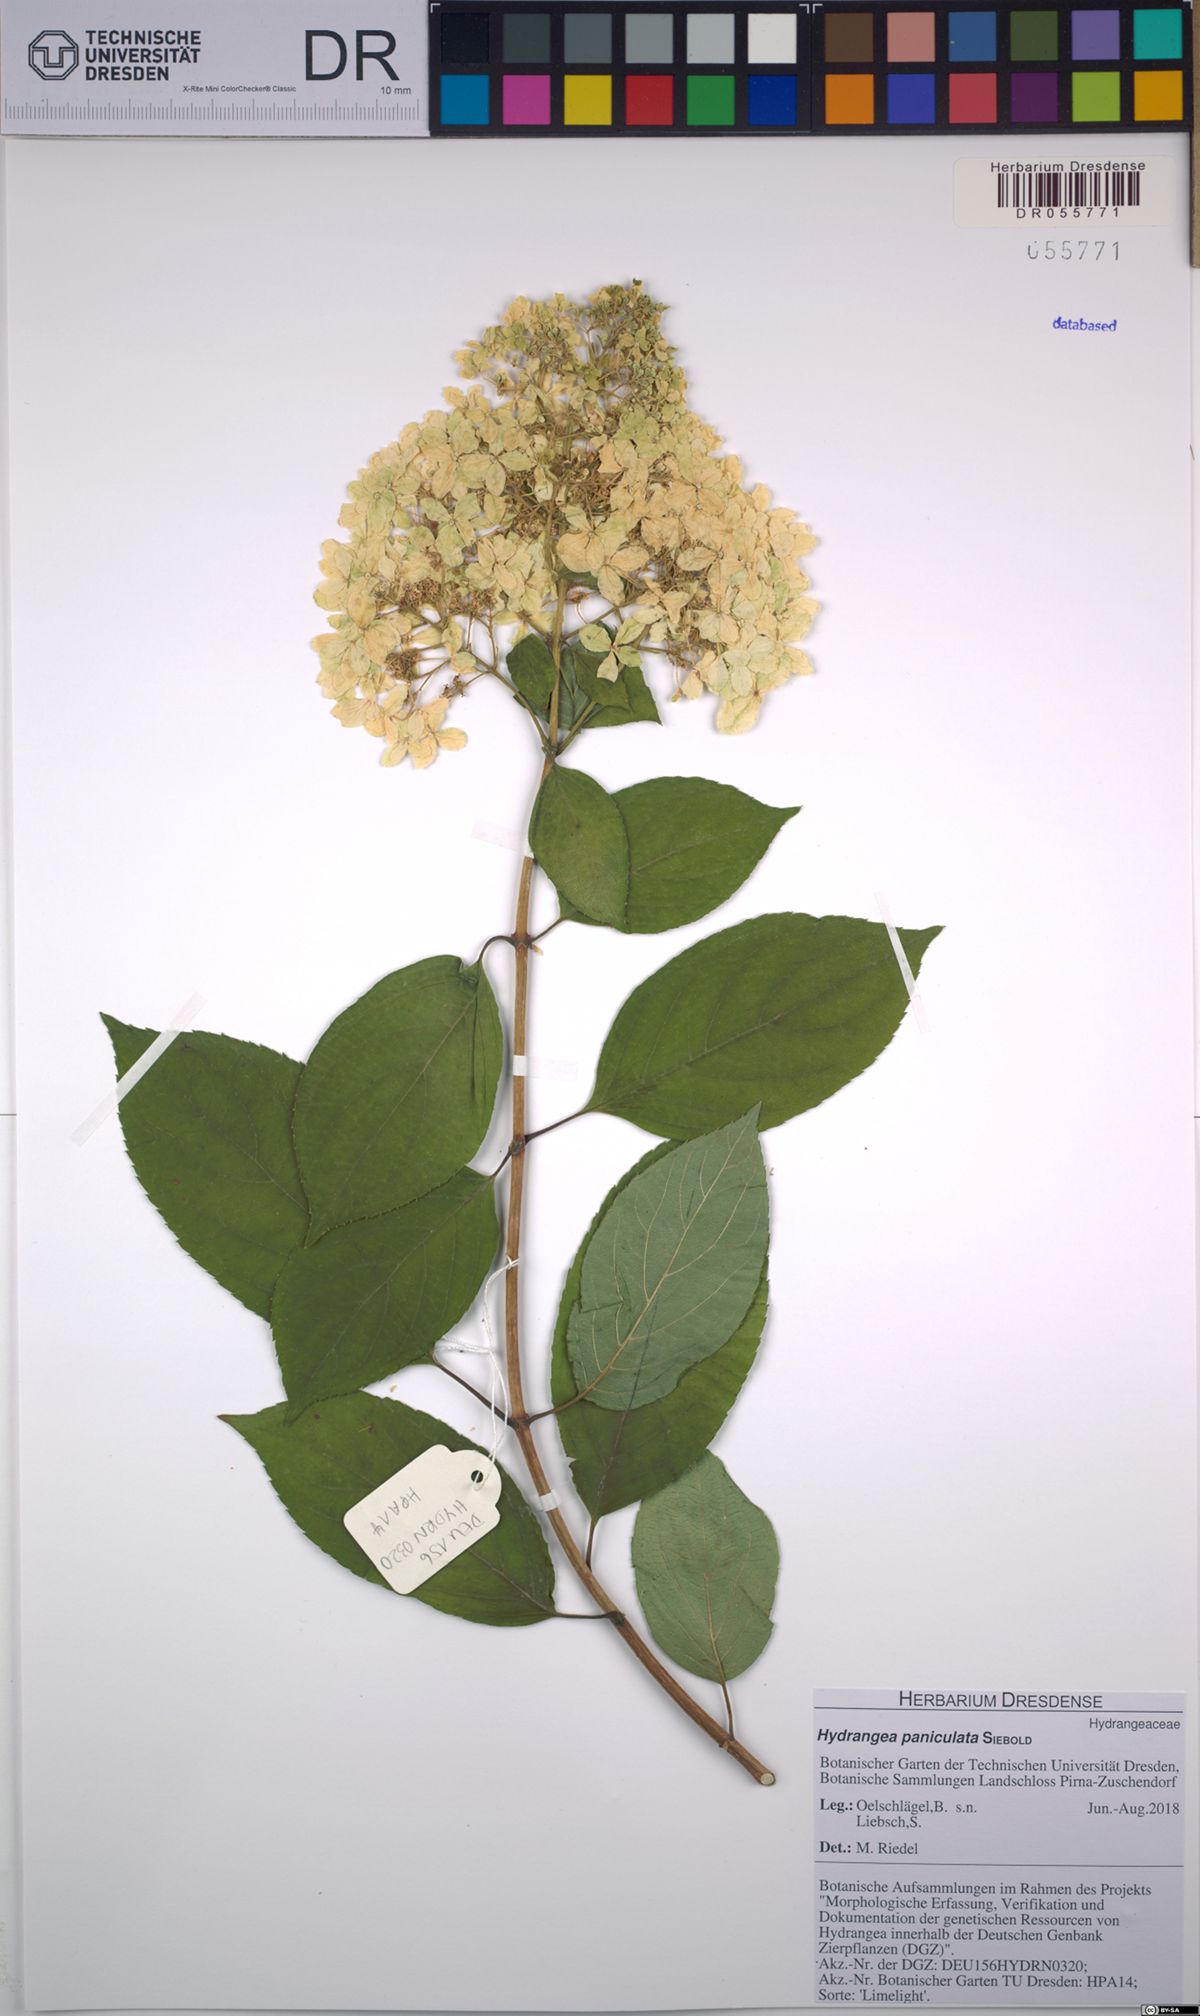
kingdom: Plantae
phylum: Tracheophyta
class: Magnoliopsida
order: Cornales
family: Hydrangeaceae
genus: Hydrangea
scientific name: Hydrangea paniculata
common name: Panicled hydrangea
